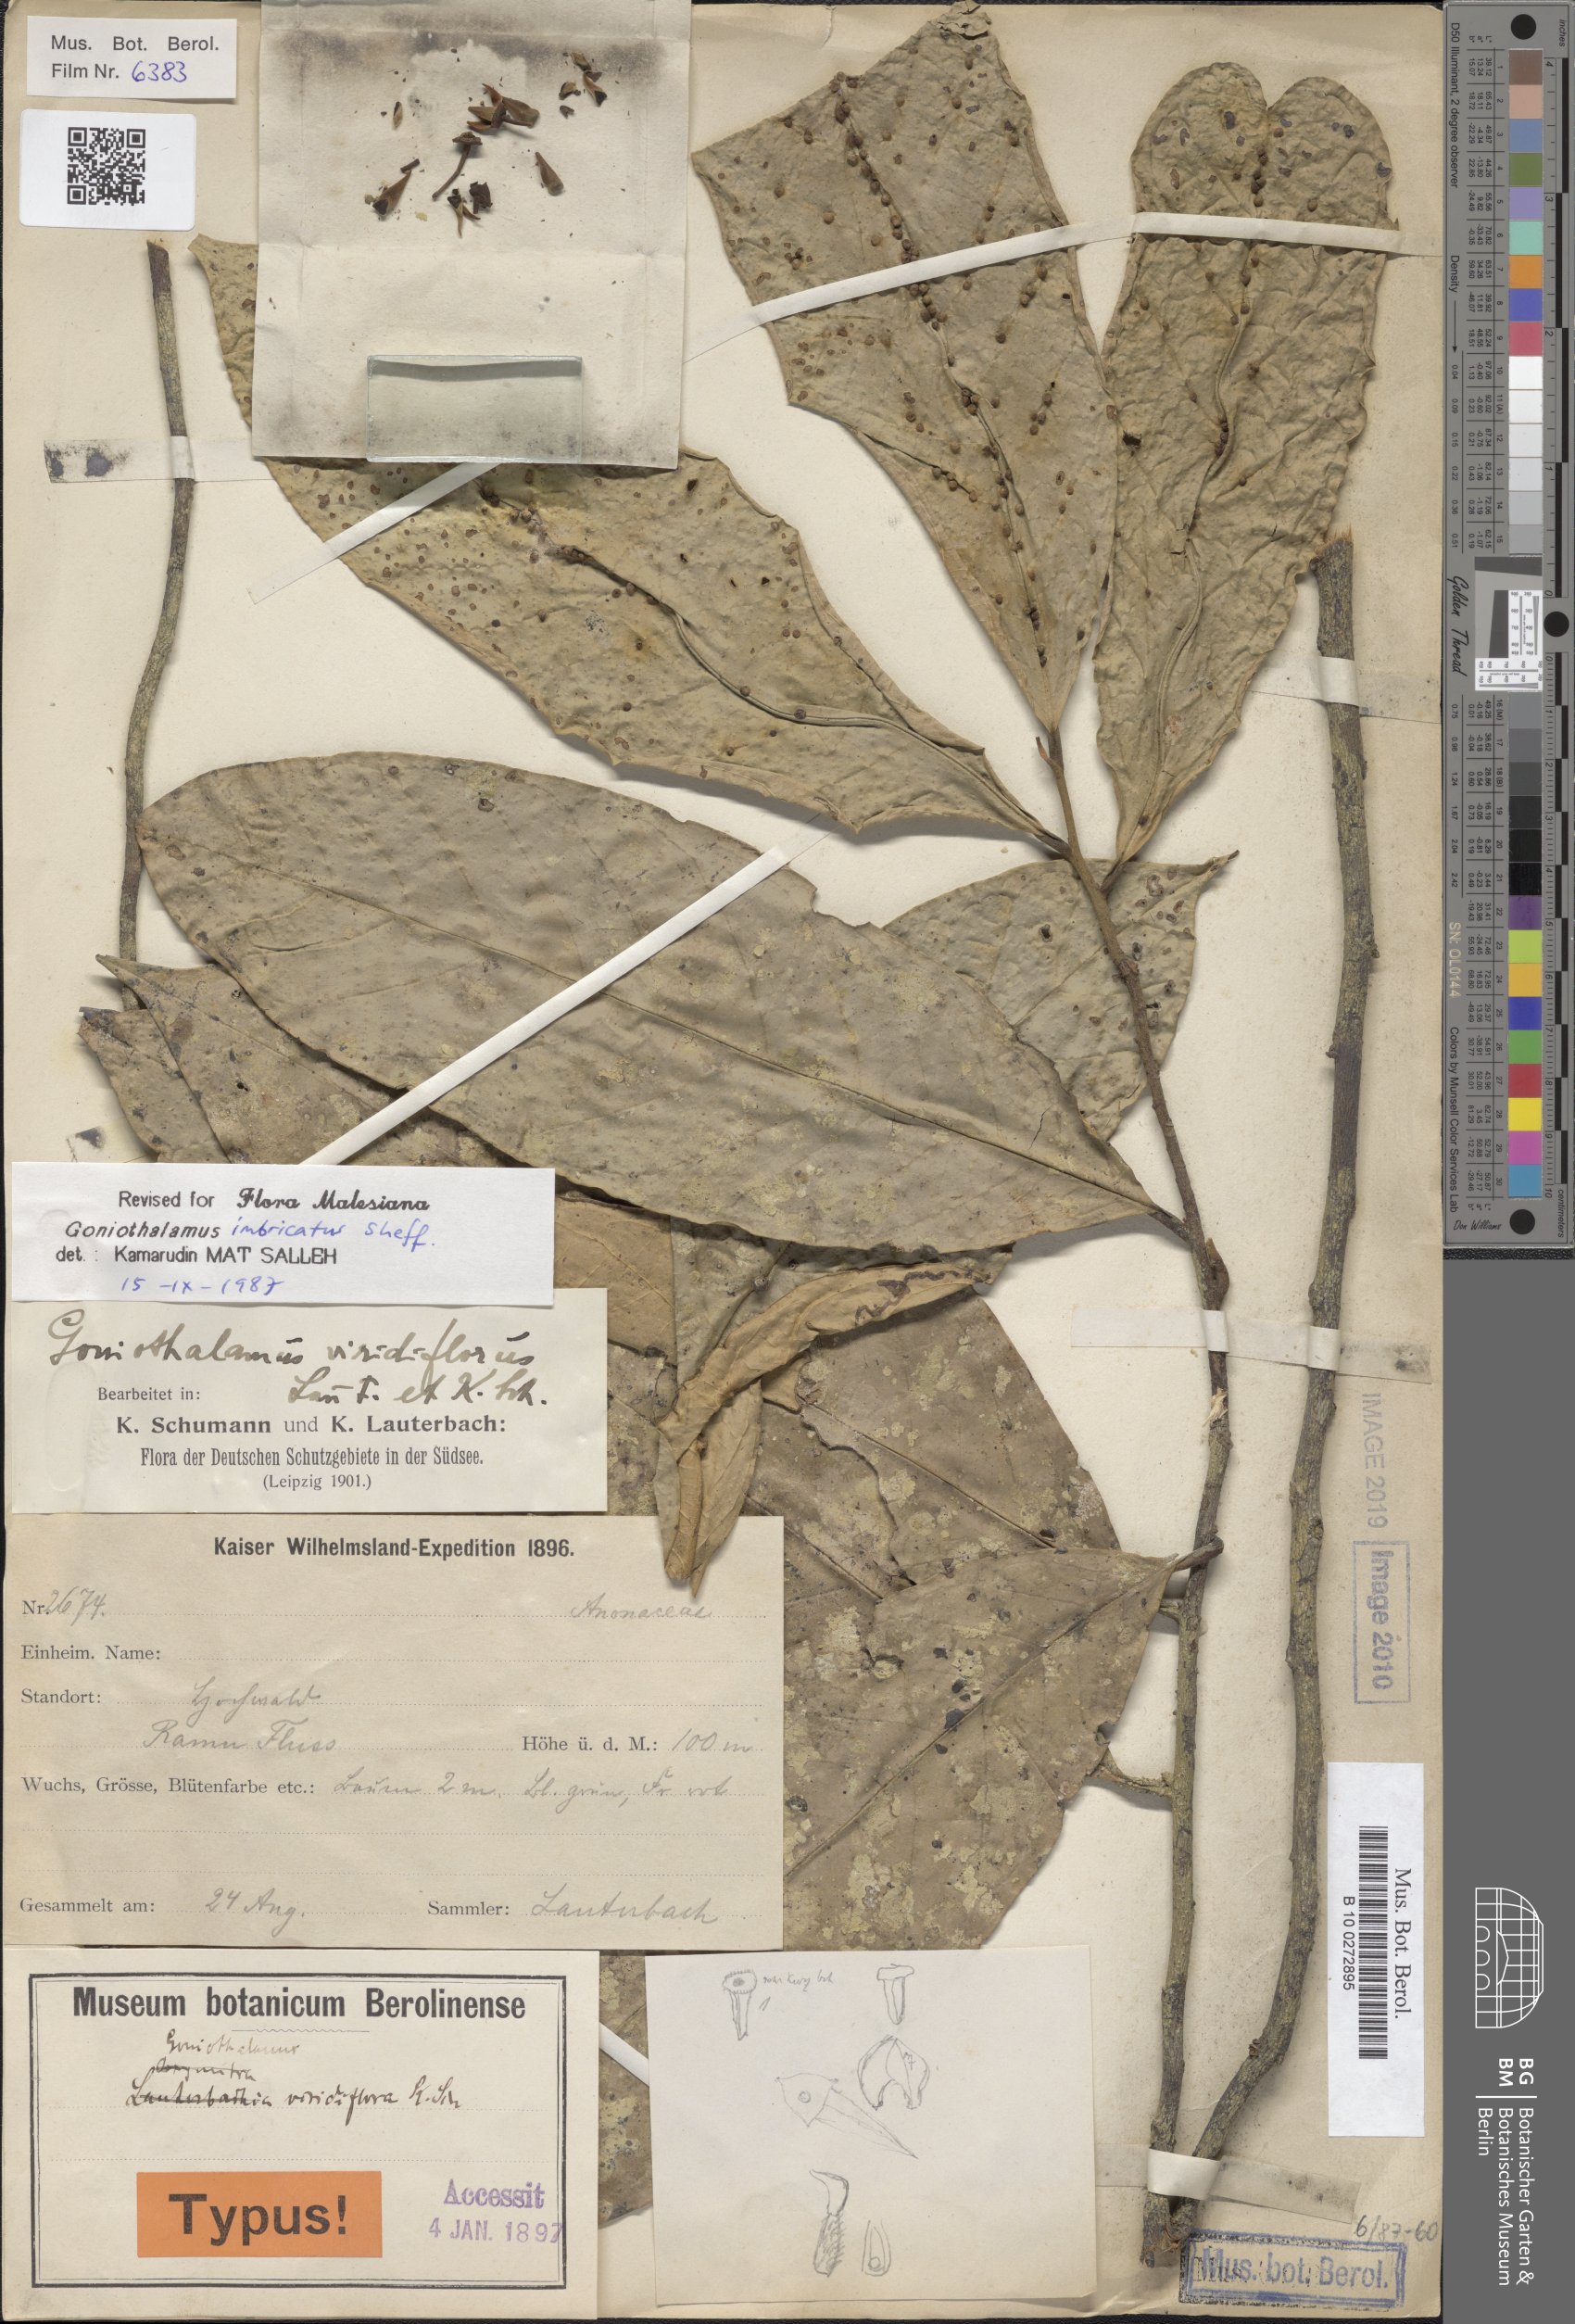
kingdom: Plantae
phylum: Tracheophyta
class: Magnoliopsida
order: Magnoliales
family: Annonaceae
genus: Goniothalamus
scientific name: Goniothalamus imbricatus
